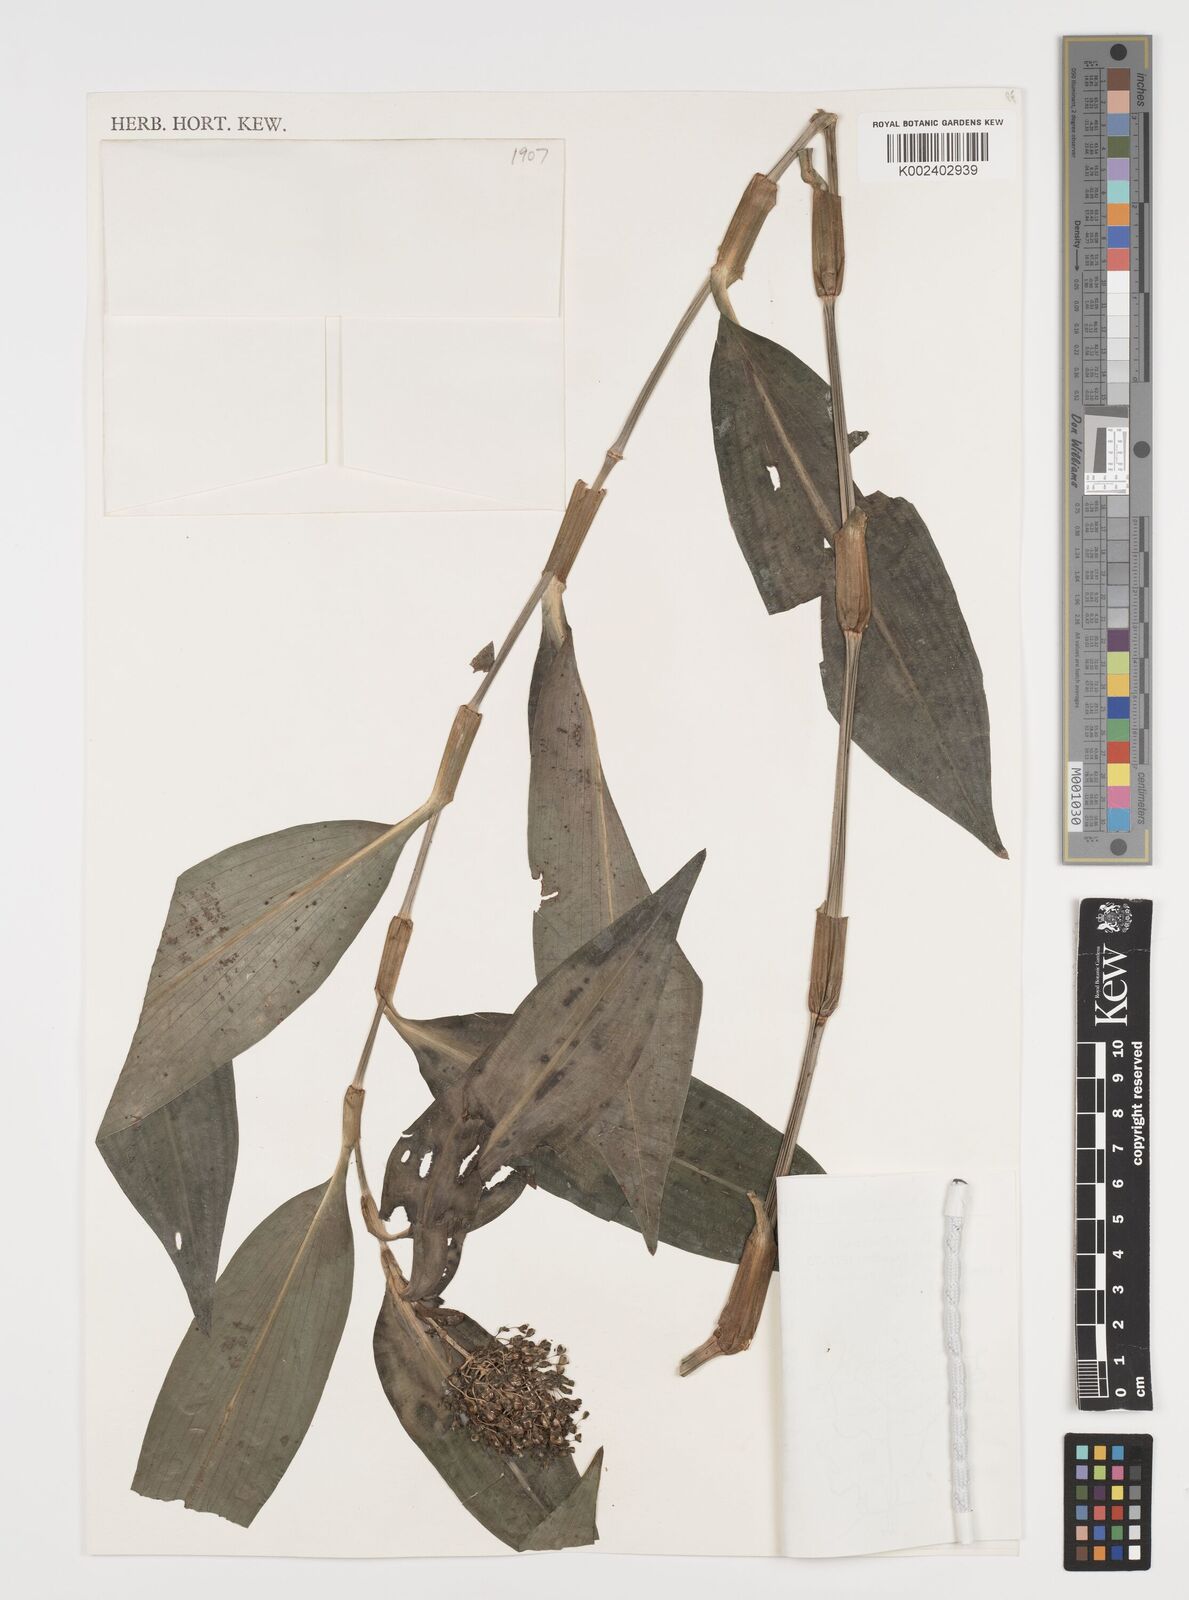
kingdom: Plantae
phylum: Tracheophyta
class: Liliopsida
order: Commelinales
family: Commelinaceae
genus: Aneilema
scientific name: Aneilema beniniense
